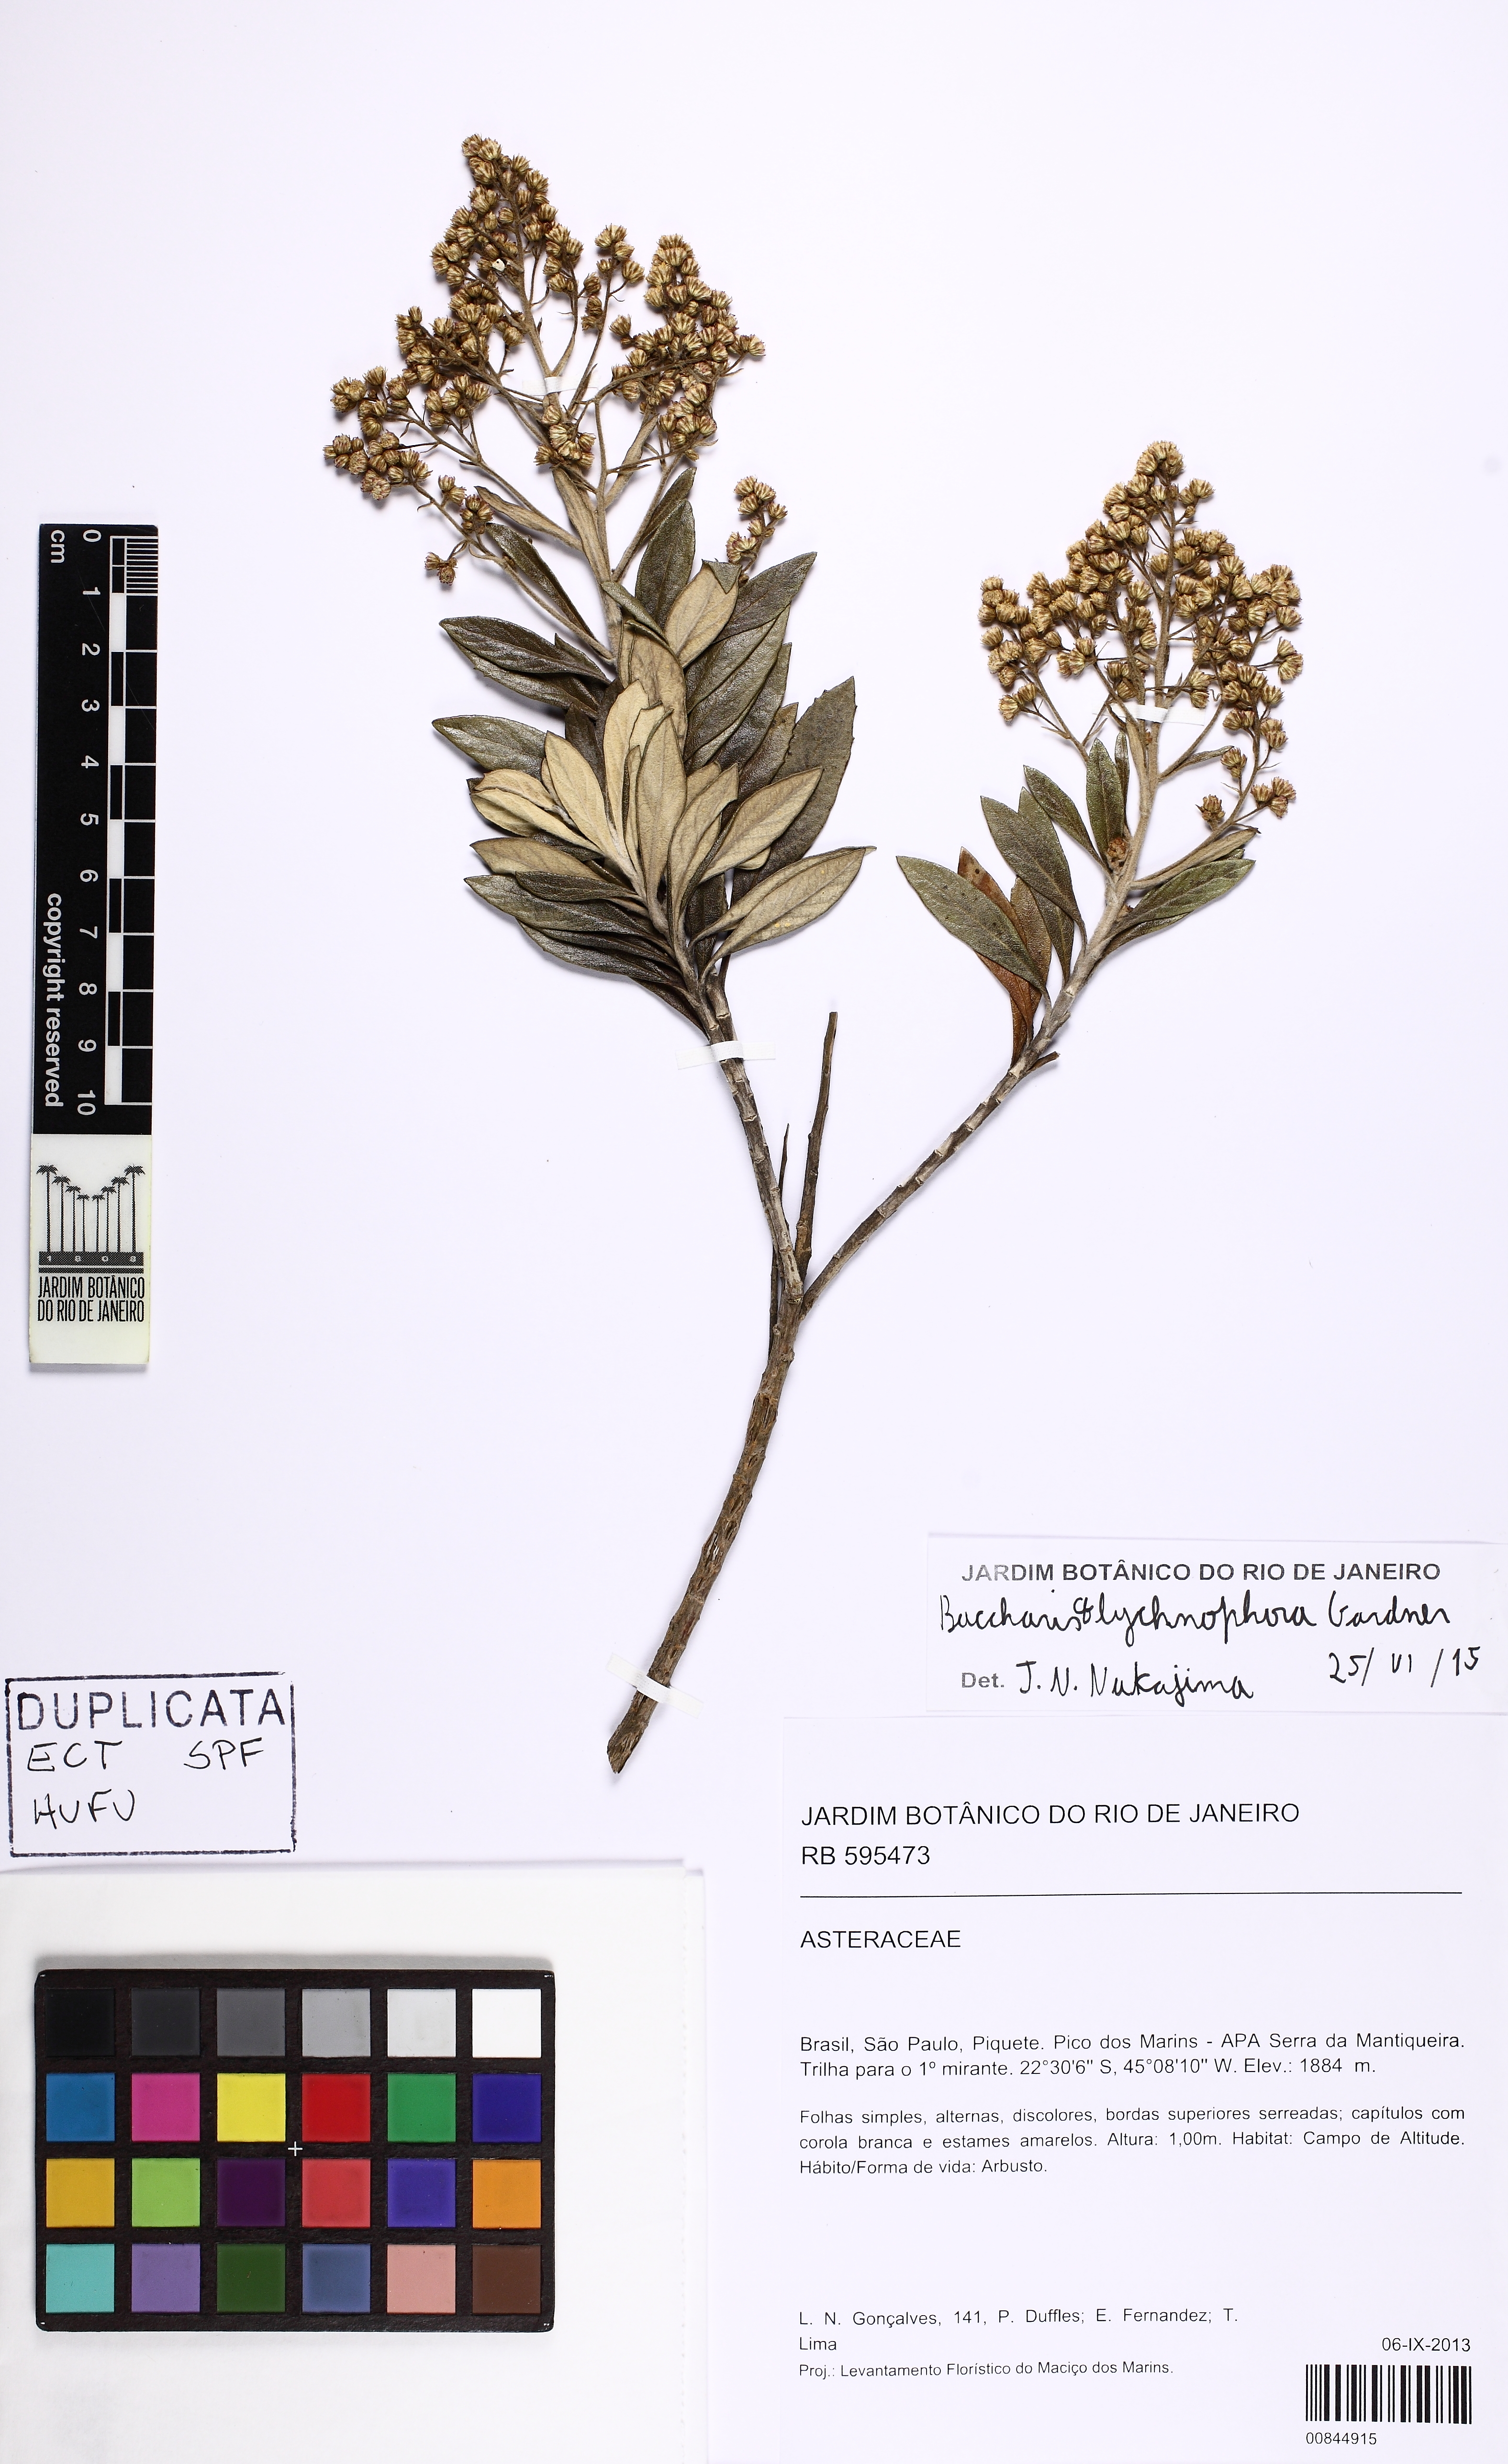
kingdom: Plantae
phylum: Tracheophyta
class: Magnoliopsida
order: Asterales
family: Asteraceae
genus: Baccharis
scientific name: Baccharis lychnophora
